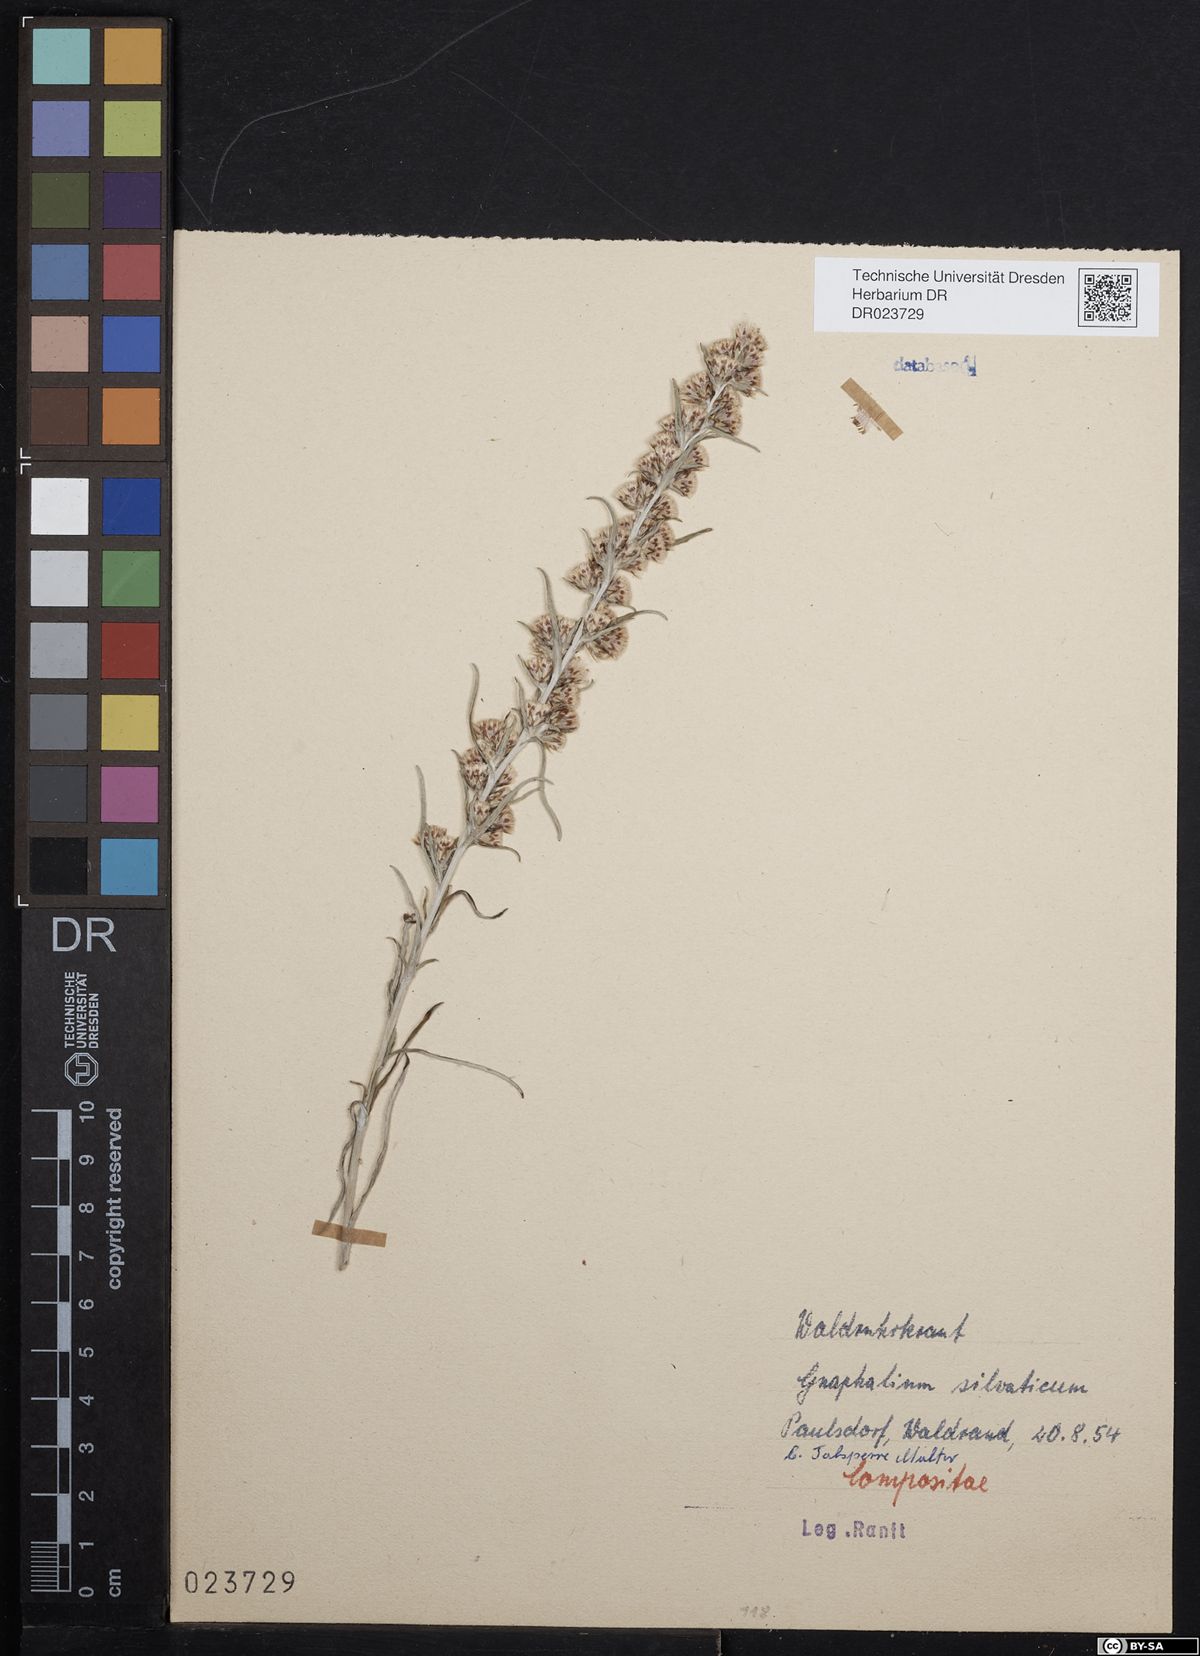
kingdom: Plantae
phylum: Tracheophyta
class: Magnoliopsida
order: Asterales
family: Asteraceae
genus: Omalotheca
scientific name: Omalotheca sylvatica
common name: Heath cudweed
